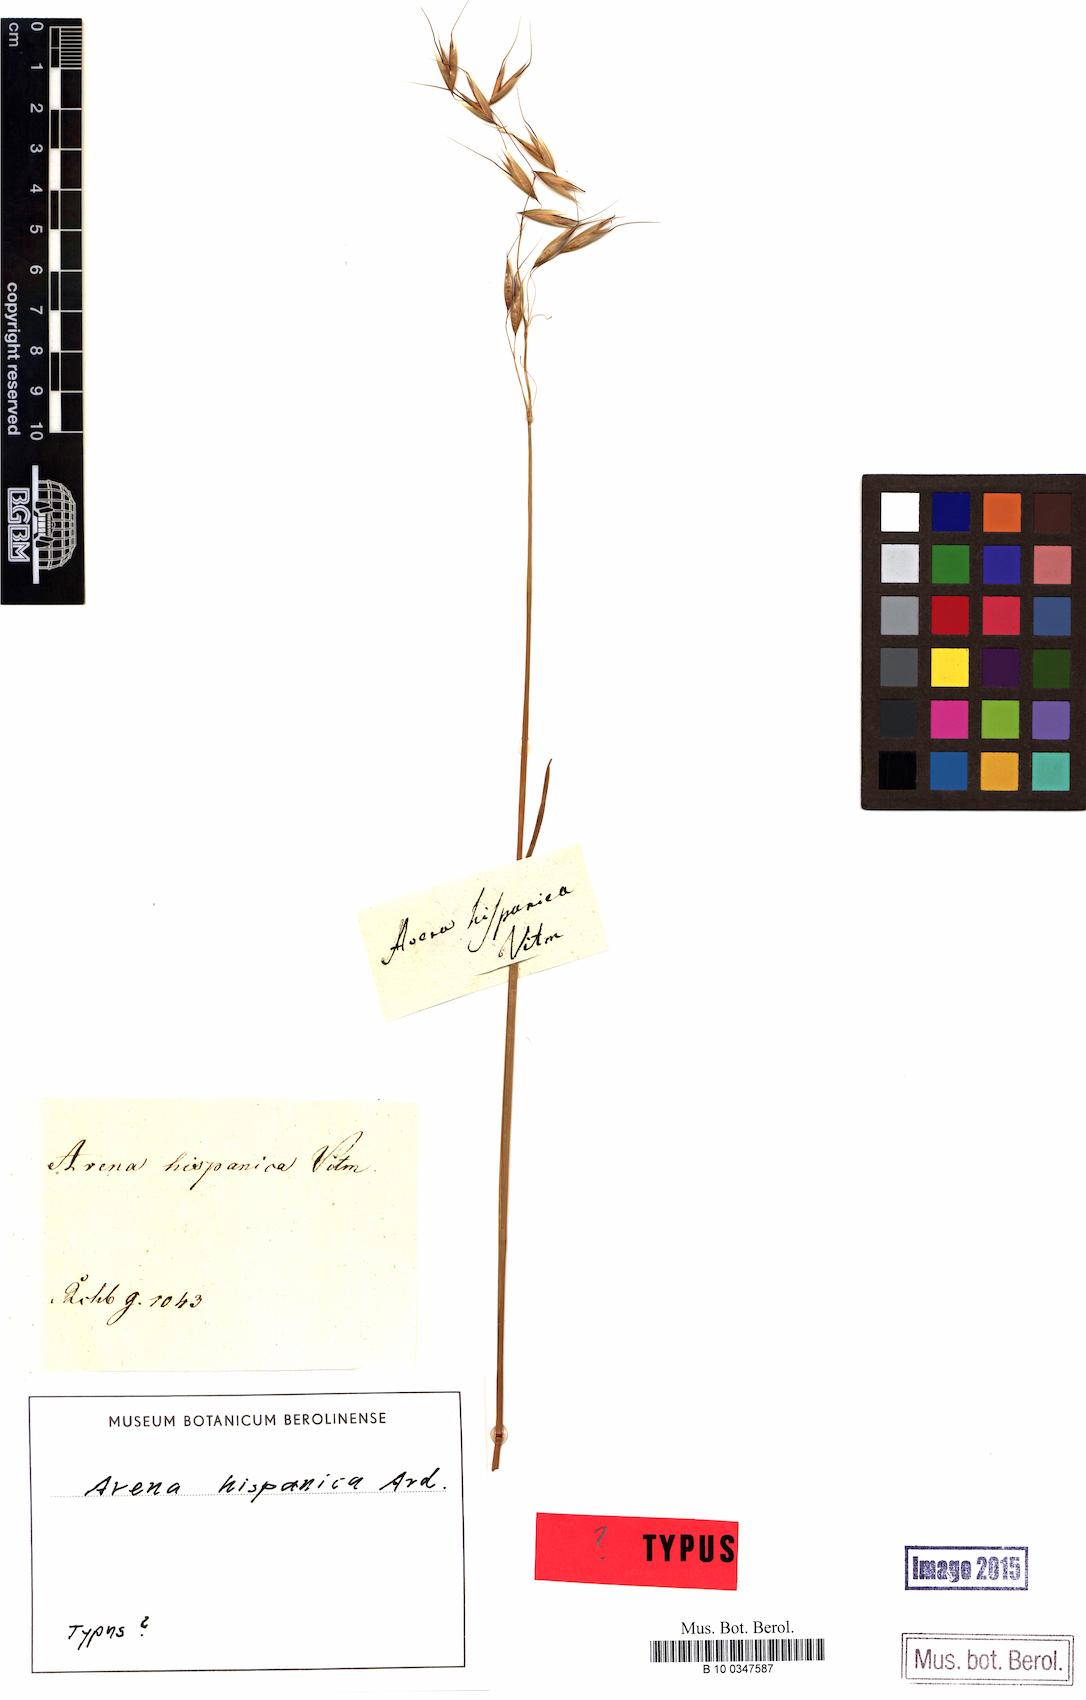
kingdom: Plantae
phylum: Tracheophyta
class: Liliopsida
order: Poales
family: Poaceae
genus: Avena
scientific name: Avena strigosa
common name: Bristle oat
